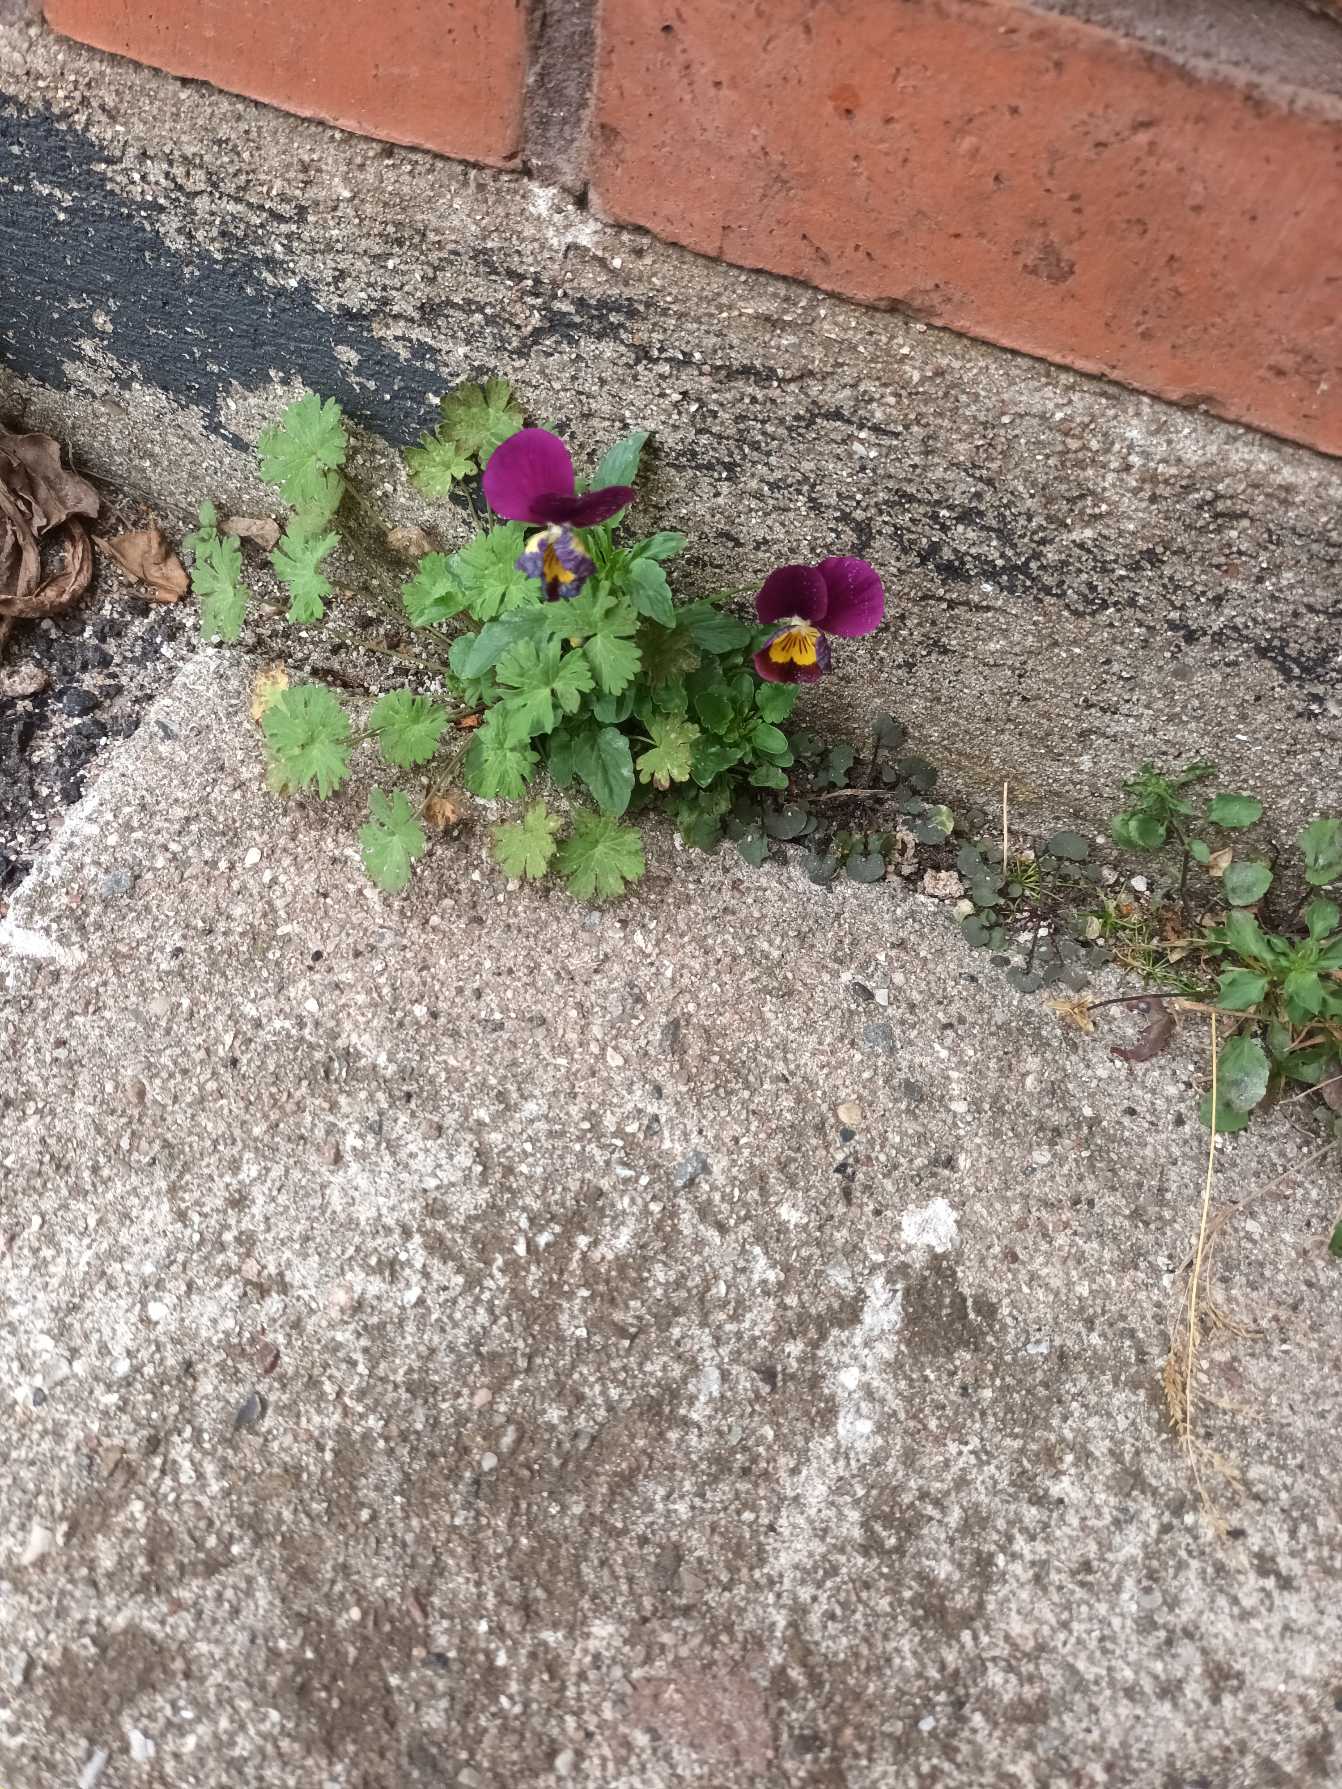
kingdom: Plantae
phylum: Tracheophyta
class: Magnoliopsida
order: Malpighiales
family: Violaceae
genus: Viola
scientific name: Viola wittrockiana
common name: Have-stedmoderblomst
